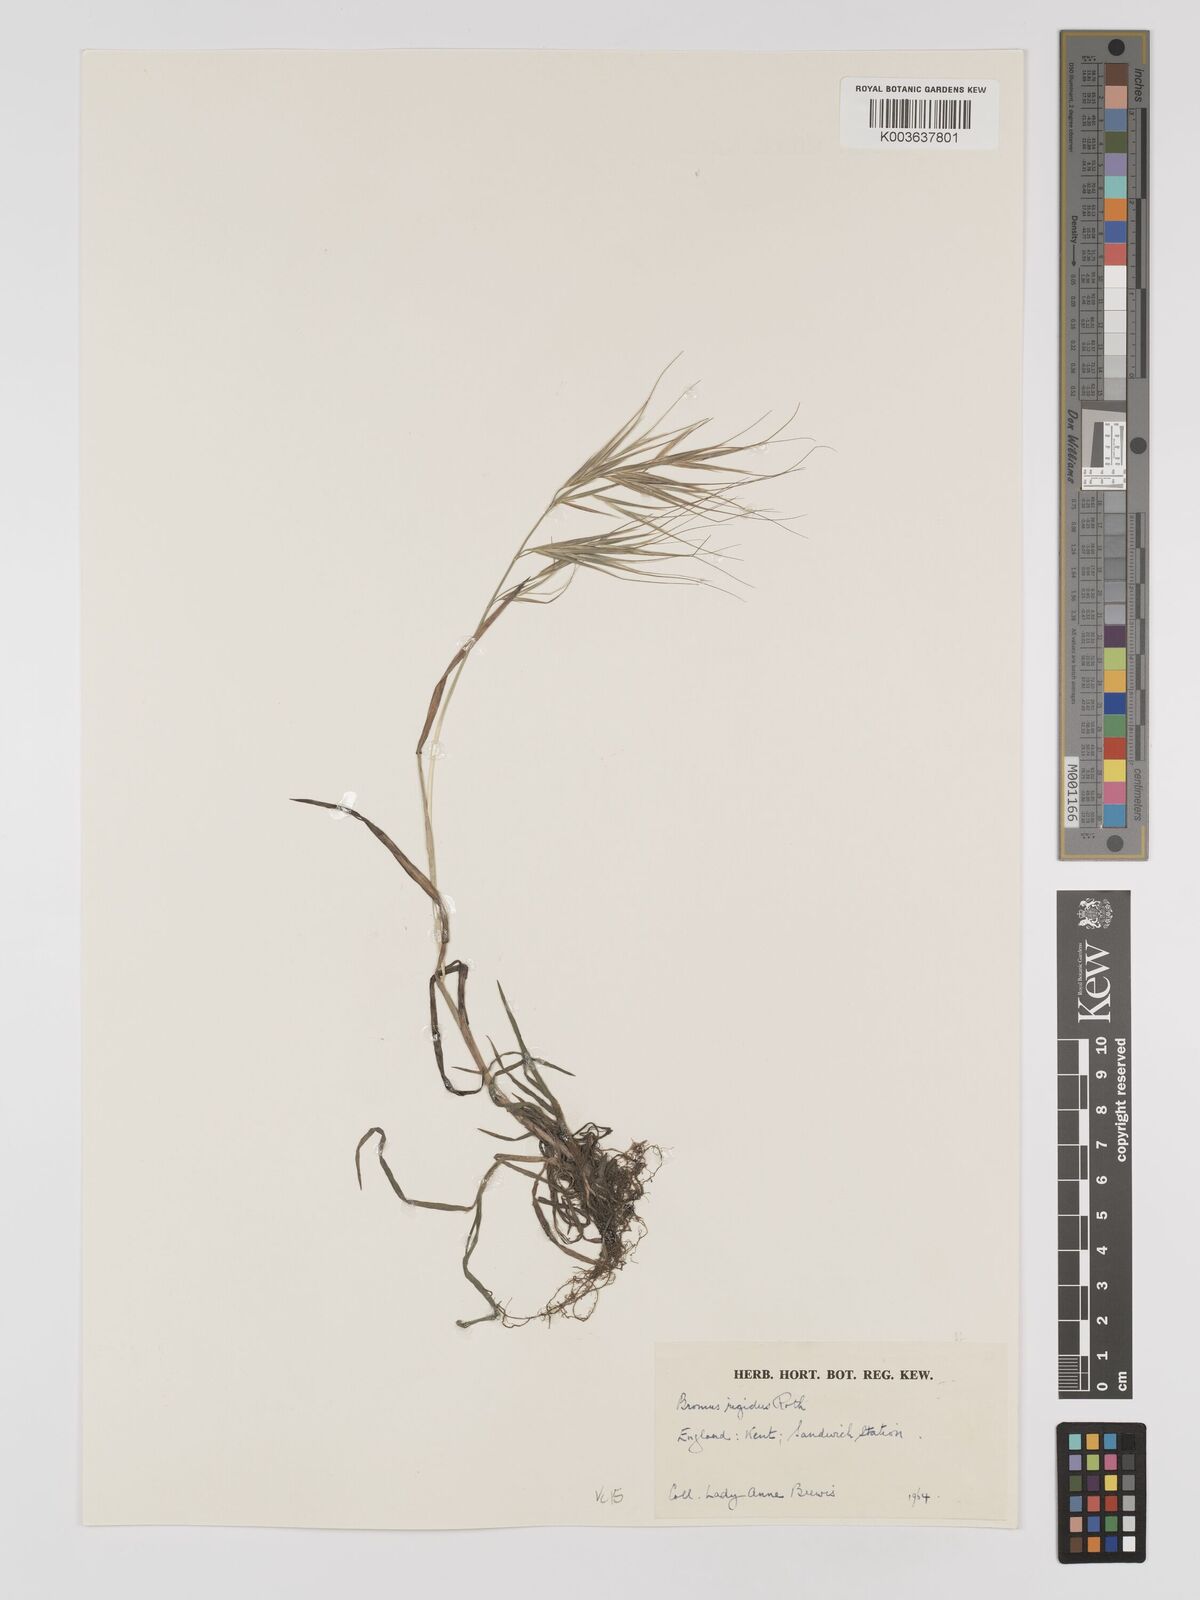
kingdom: Plantae
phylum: Tracheophyta
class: Liliopsida
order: Poales
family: Poaceae
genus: Bromus
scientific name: Bromus
